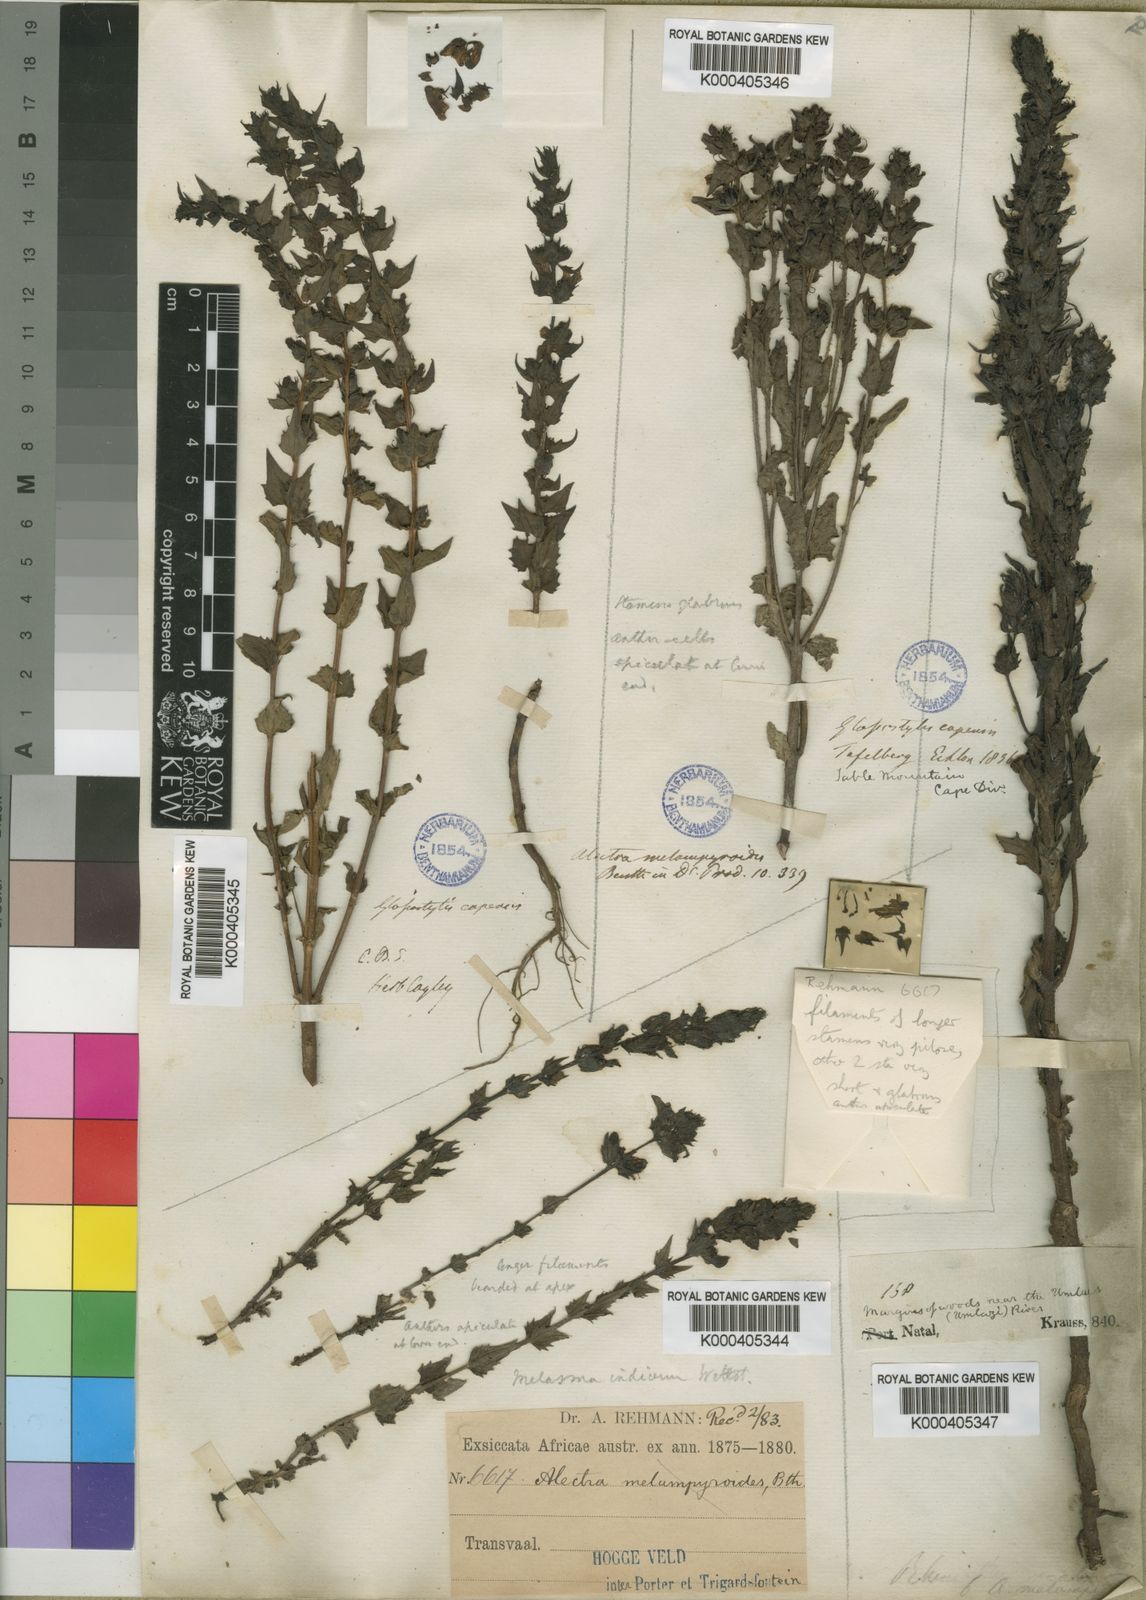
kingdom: Plantae
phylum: Tracheophyta
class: Magnoliopsida
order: Lamiales
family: Orobanchaceae
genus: Alectra
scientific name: Alectra sessiliflora
